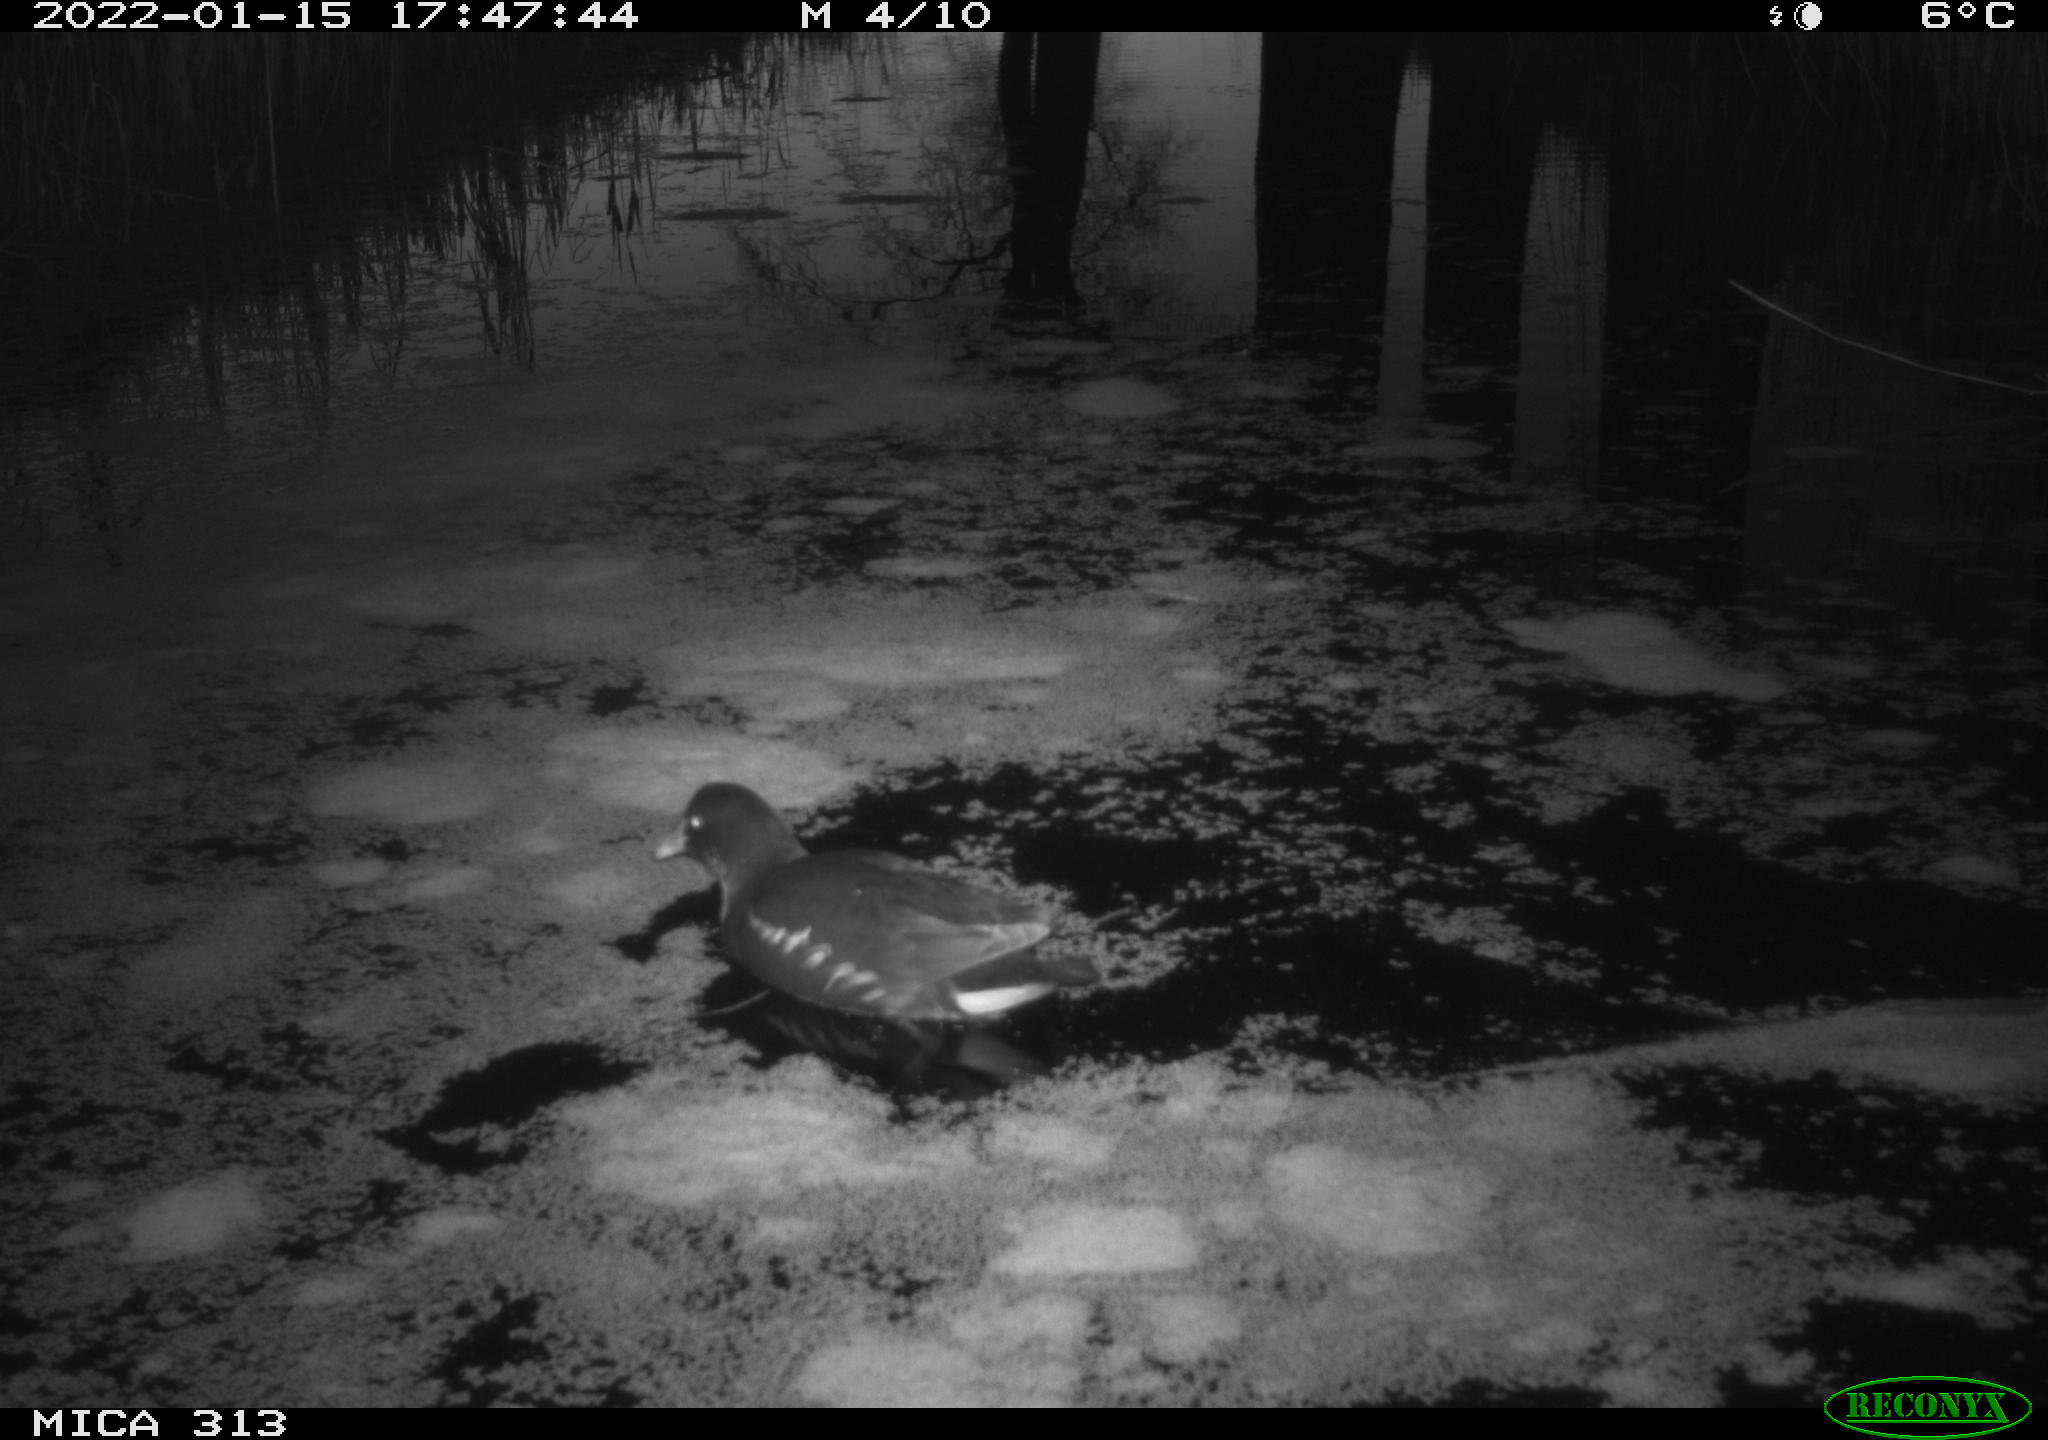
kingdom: Animalia
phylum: Chordata
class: Aves
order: Gruiformes
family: Rallidae
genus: Gallinula
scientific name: Gallinula chloropus
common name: Common moorhen
